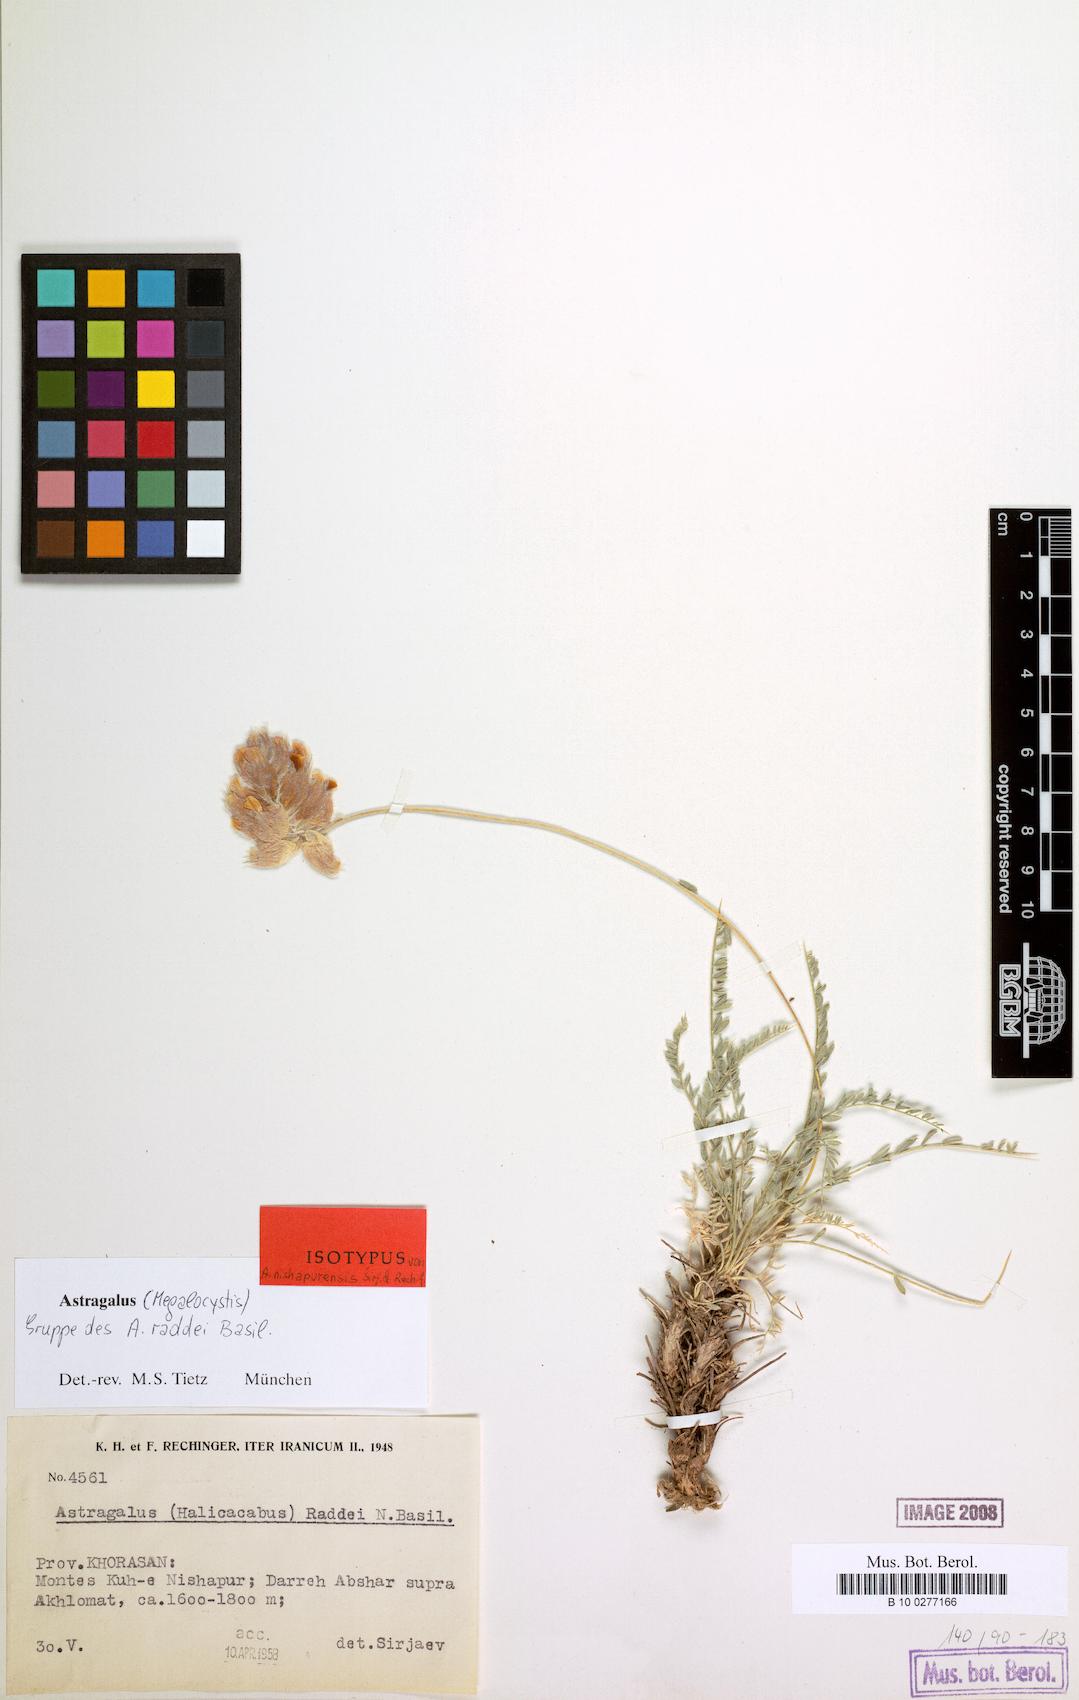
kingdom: Plantae
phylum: Tracheophyta
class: Magnoliopsida
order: Fabales
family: Fabaceae
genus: Astragalus
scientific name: Astragalus raddei
